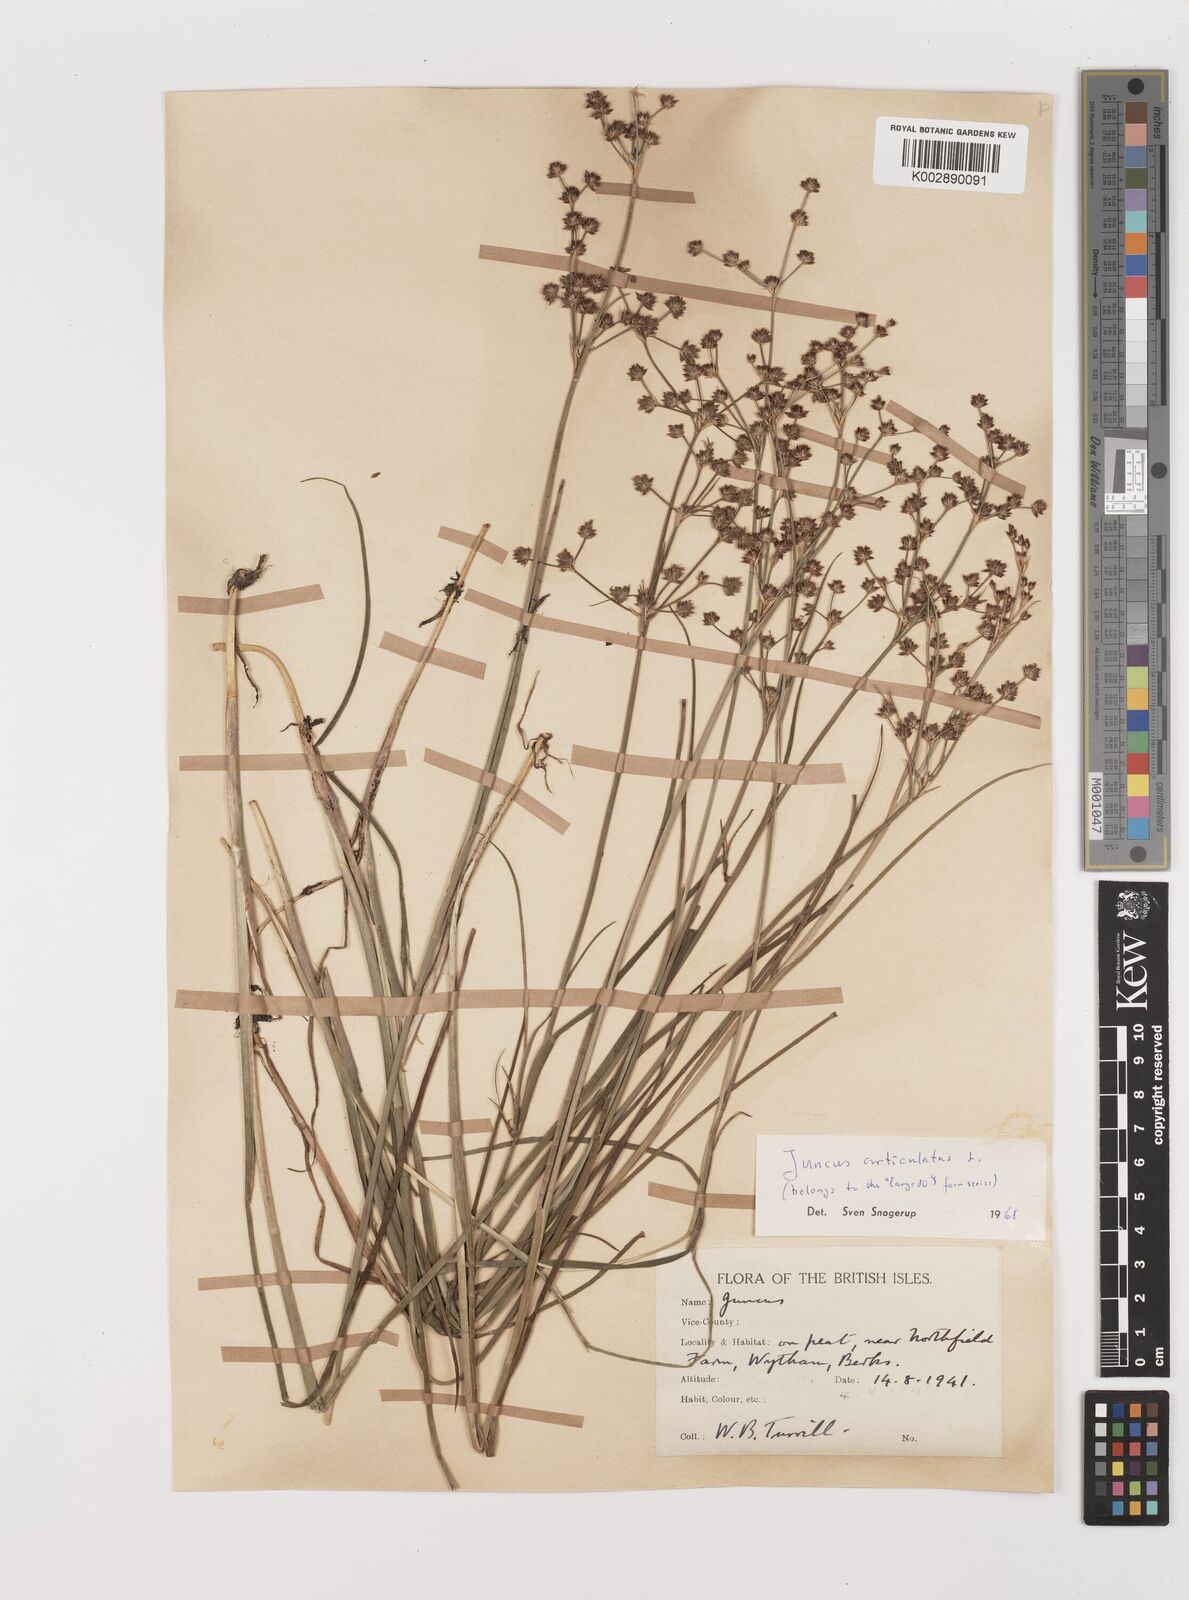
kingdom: Plantae
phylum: Tracheophyta
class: Liliopsida
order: Poales
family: Juncaceae
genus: Juncus
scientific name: Juncus articulatus
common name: Jointed rush
